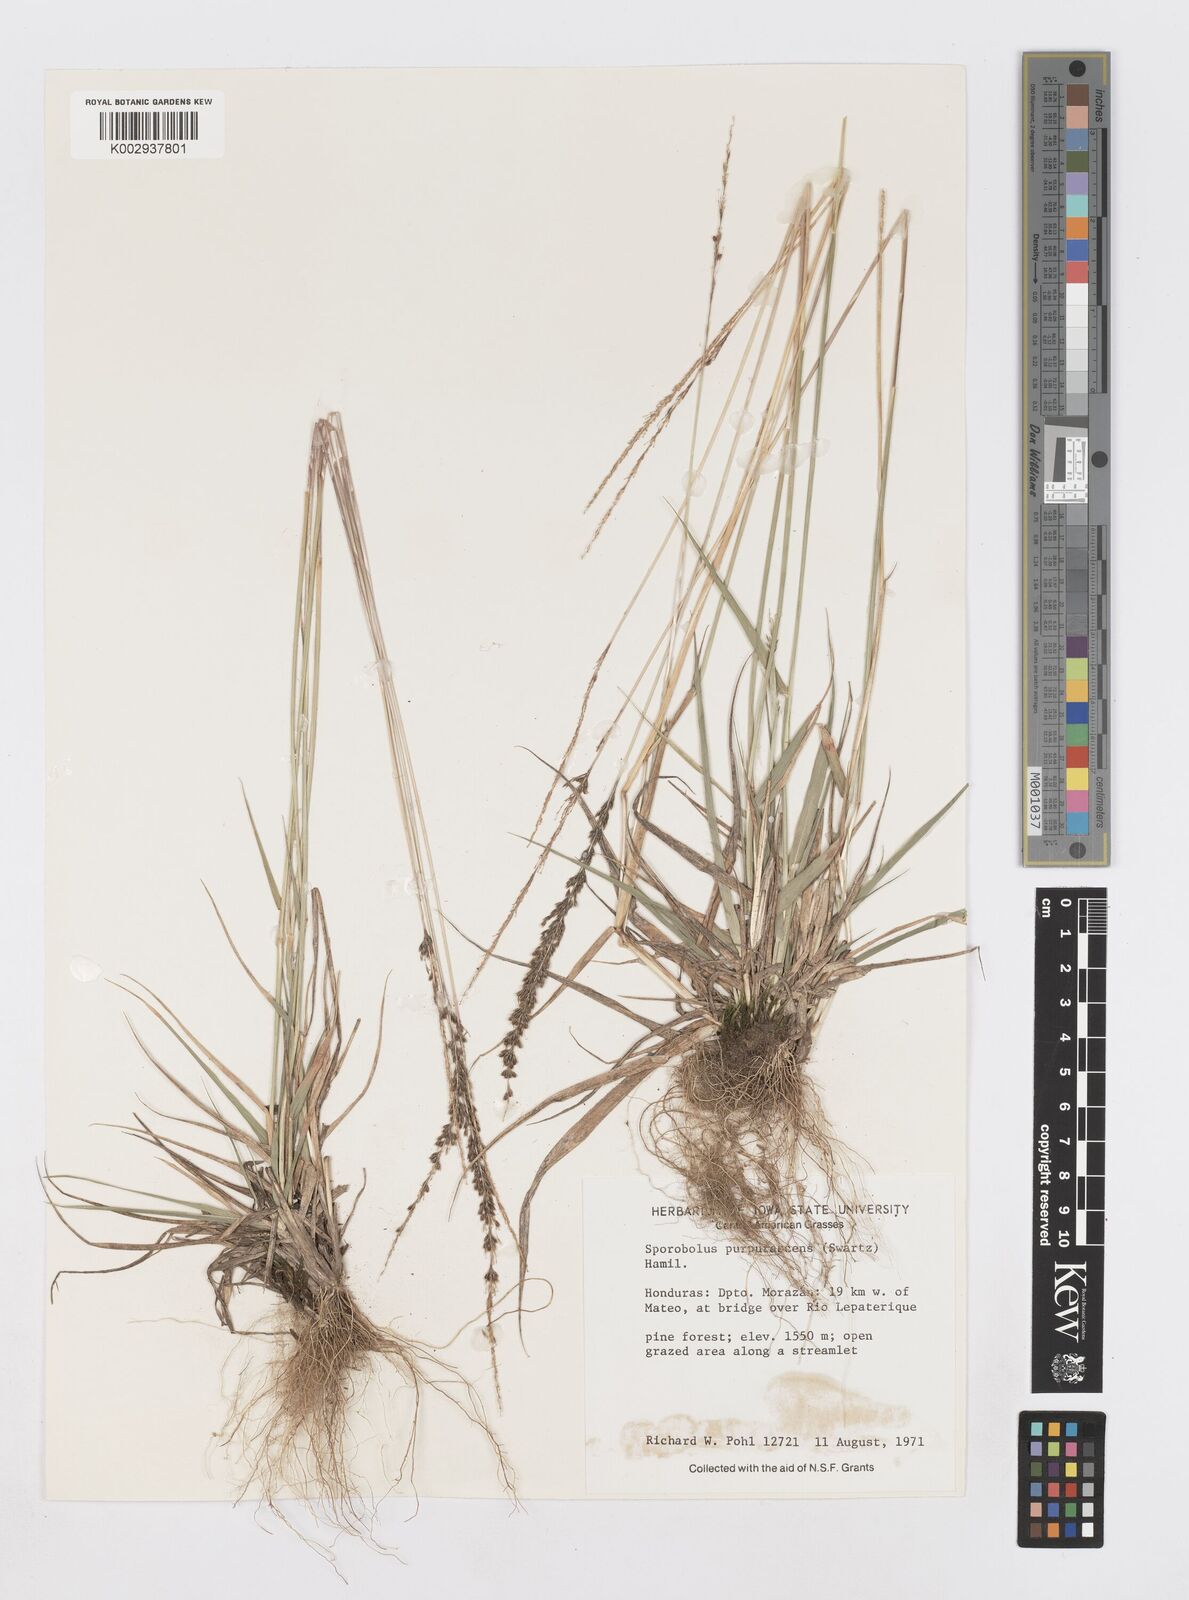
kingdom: Plantae
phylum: Tracheophyta
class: Liliopsida
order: Poales
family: Poaceae
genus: Sporobolus
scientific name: Sporobolus purpurascens
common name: Purple dropseed
